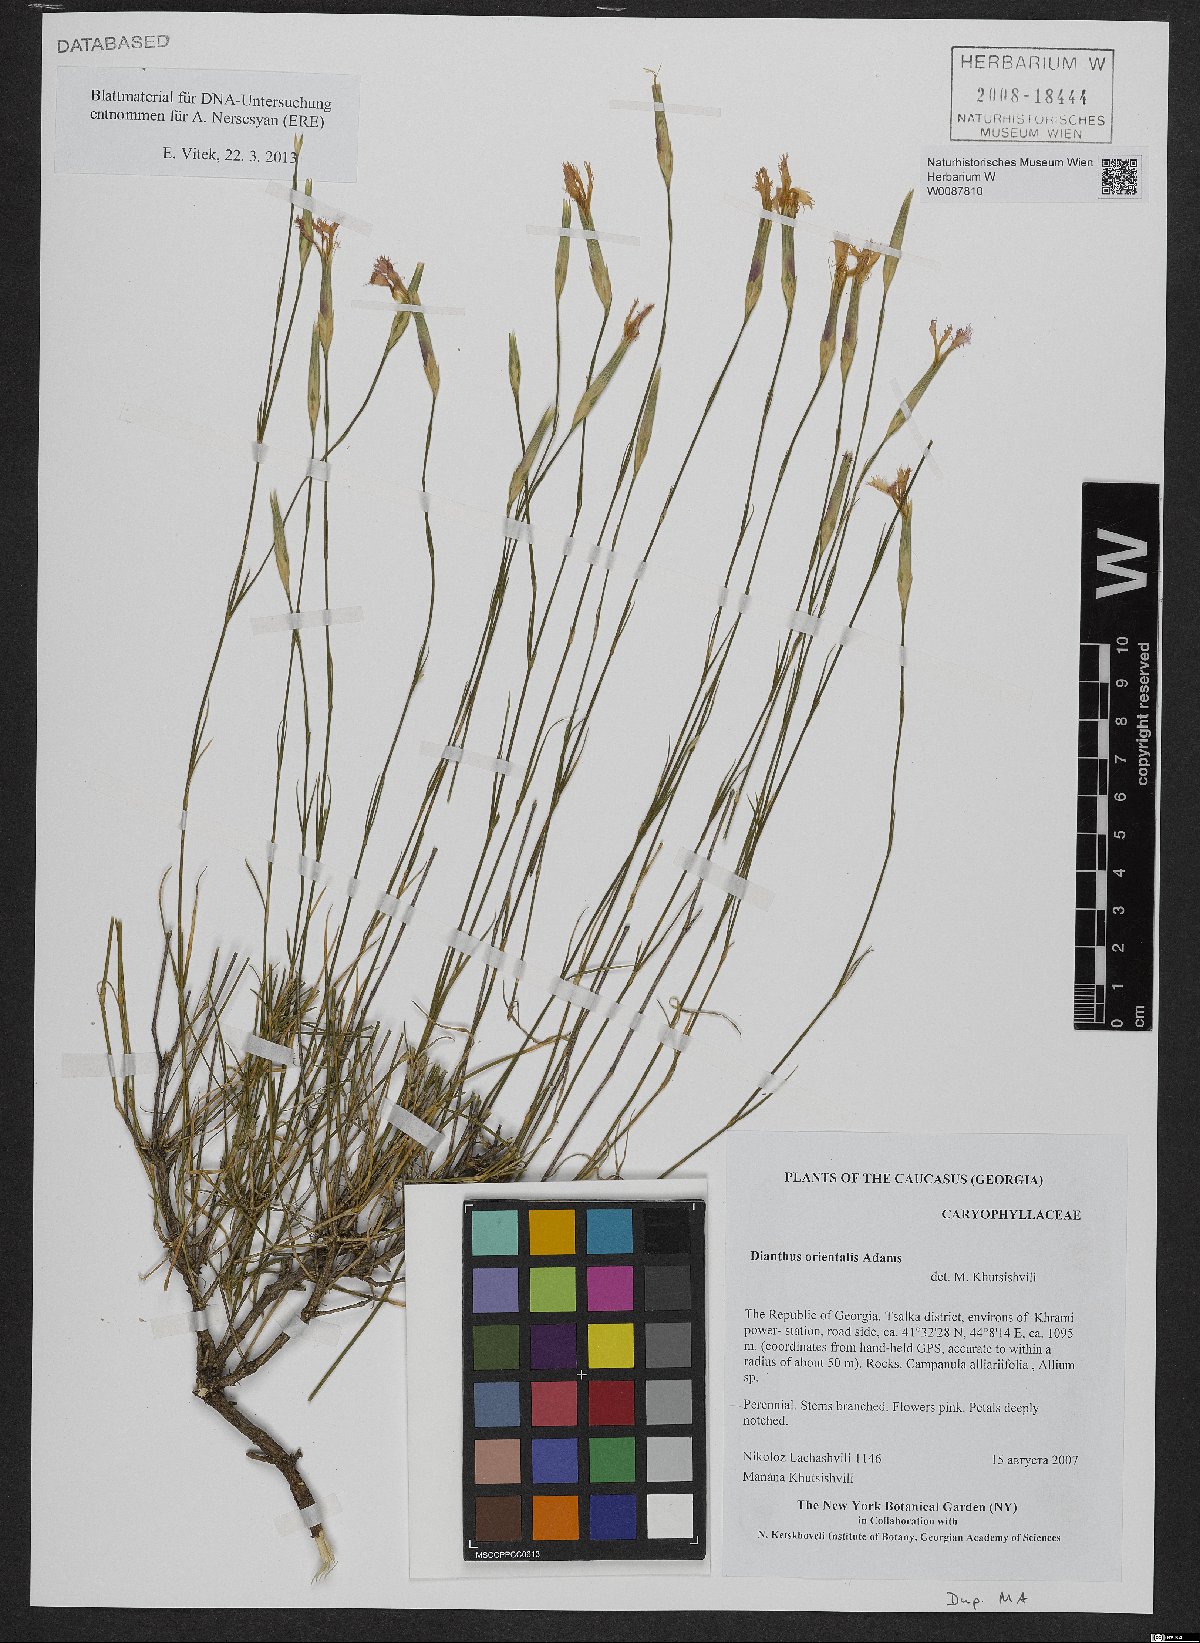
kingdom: Plantae
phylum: Tracheophyta
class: Magnoliopsida
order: Caryophyllales
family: Caryophyllaceae
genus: Dianthus
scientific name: Dianthus orientalis
